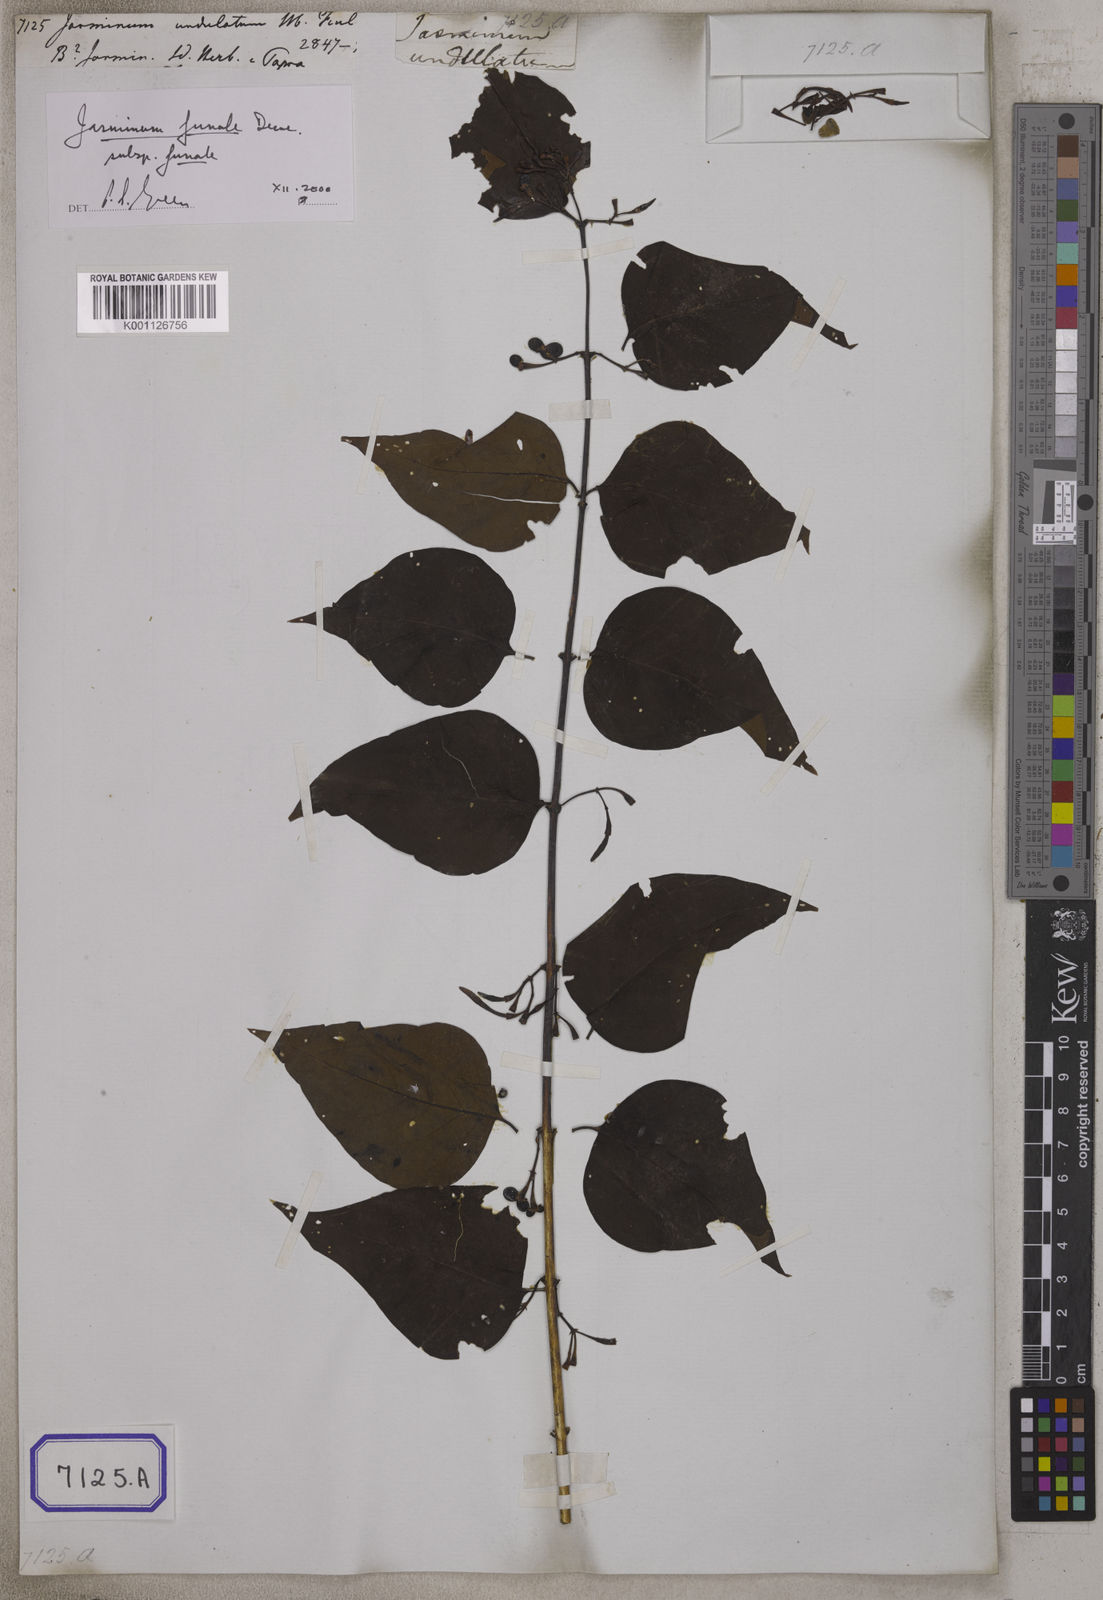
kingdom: Plantae
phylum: Tracheophyta
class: Magnoliopsida
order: Lamiales
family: Oleaceae
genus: Jasminum
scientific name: Jasminum sambac
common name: Arabian jasmine
